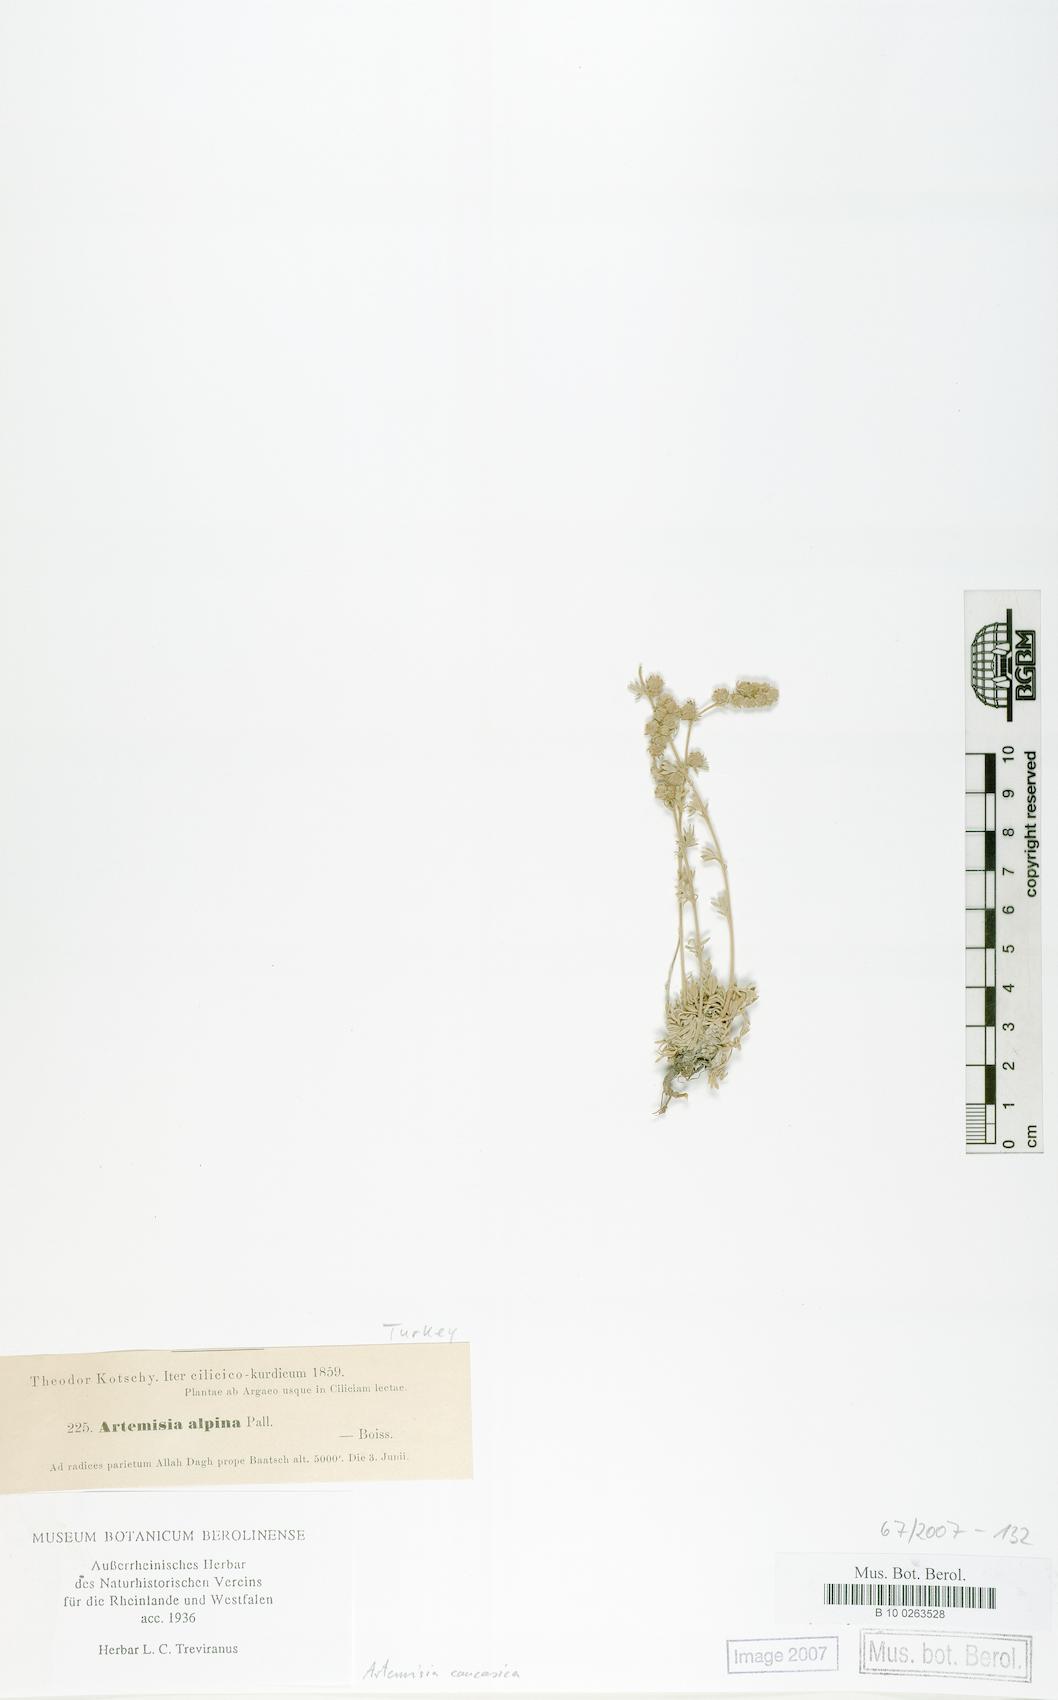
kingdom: Plantae
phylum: Tracheophyta
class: Magnoliopsida
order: Asterales
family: Asteraceae
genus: Artemisia
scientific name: Artemisia alpina
